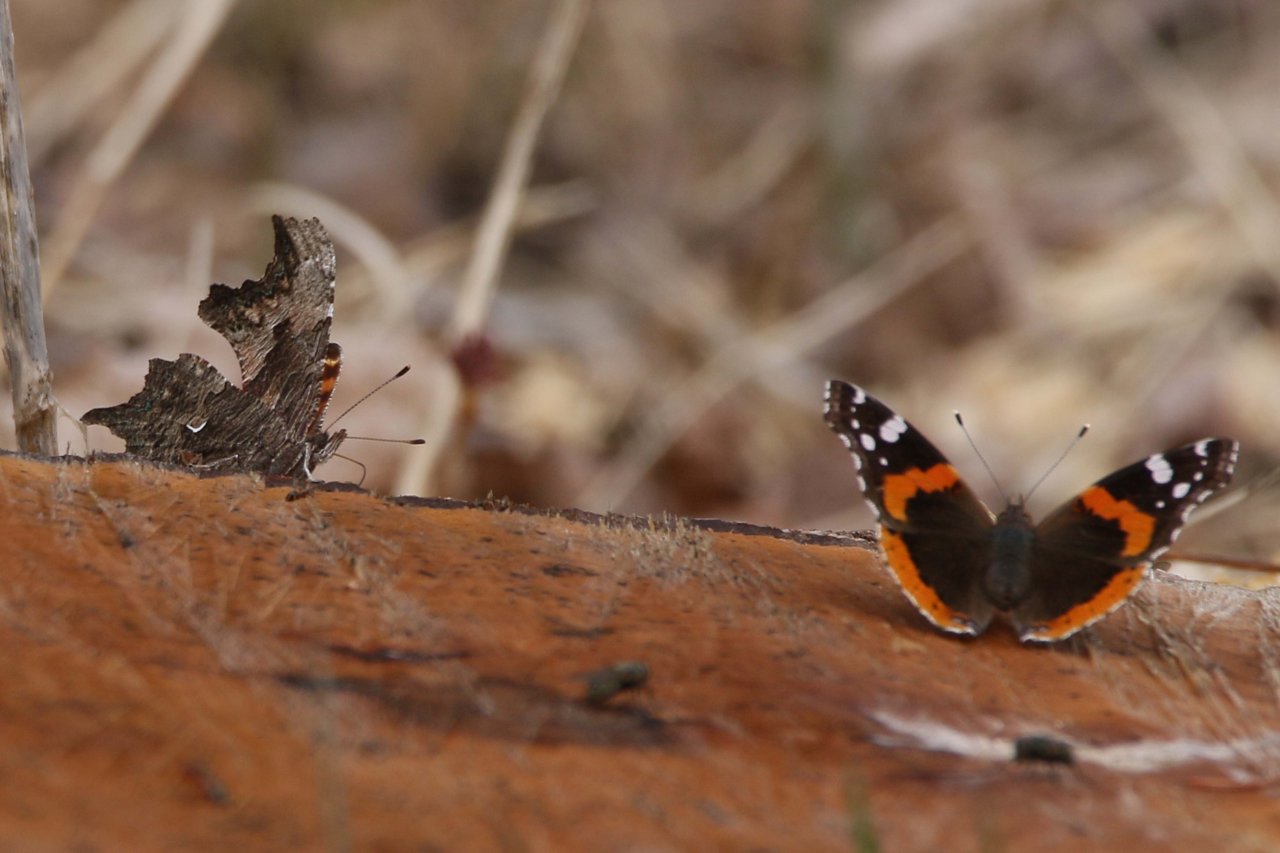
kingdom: Animalia
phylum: Arthropoda
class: Insecta
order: Lepidoptera
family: Nymphalidae
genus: Polygonia
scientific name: Polygonia progne
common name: Gray Comma
